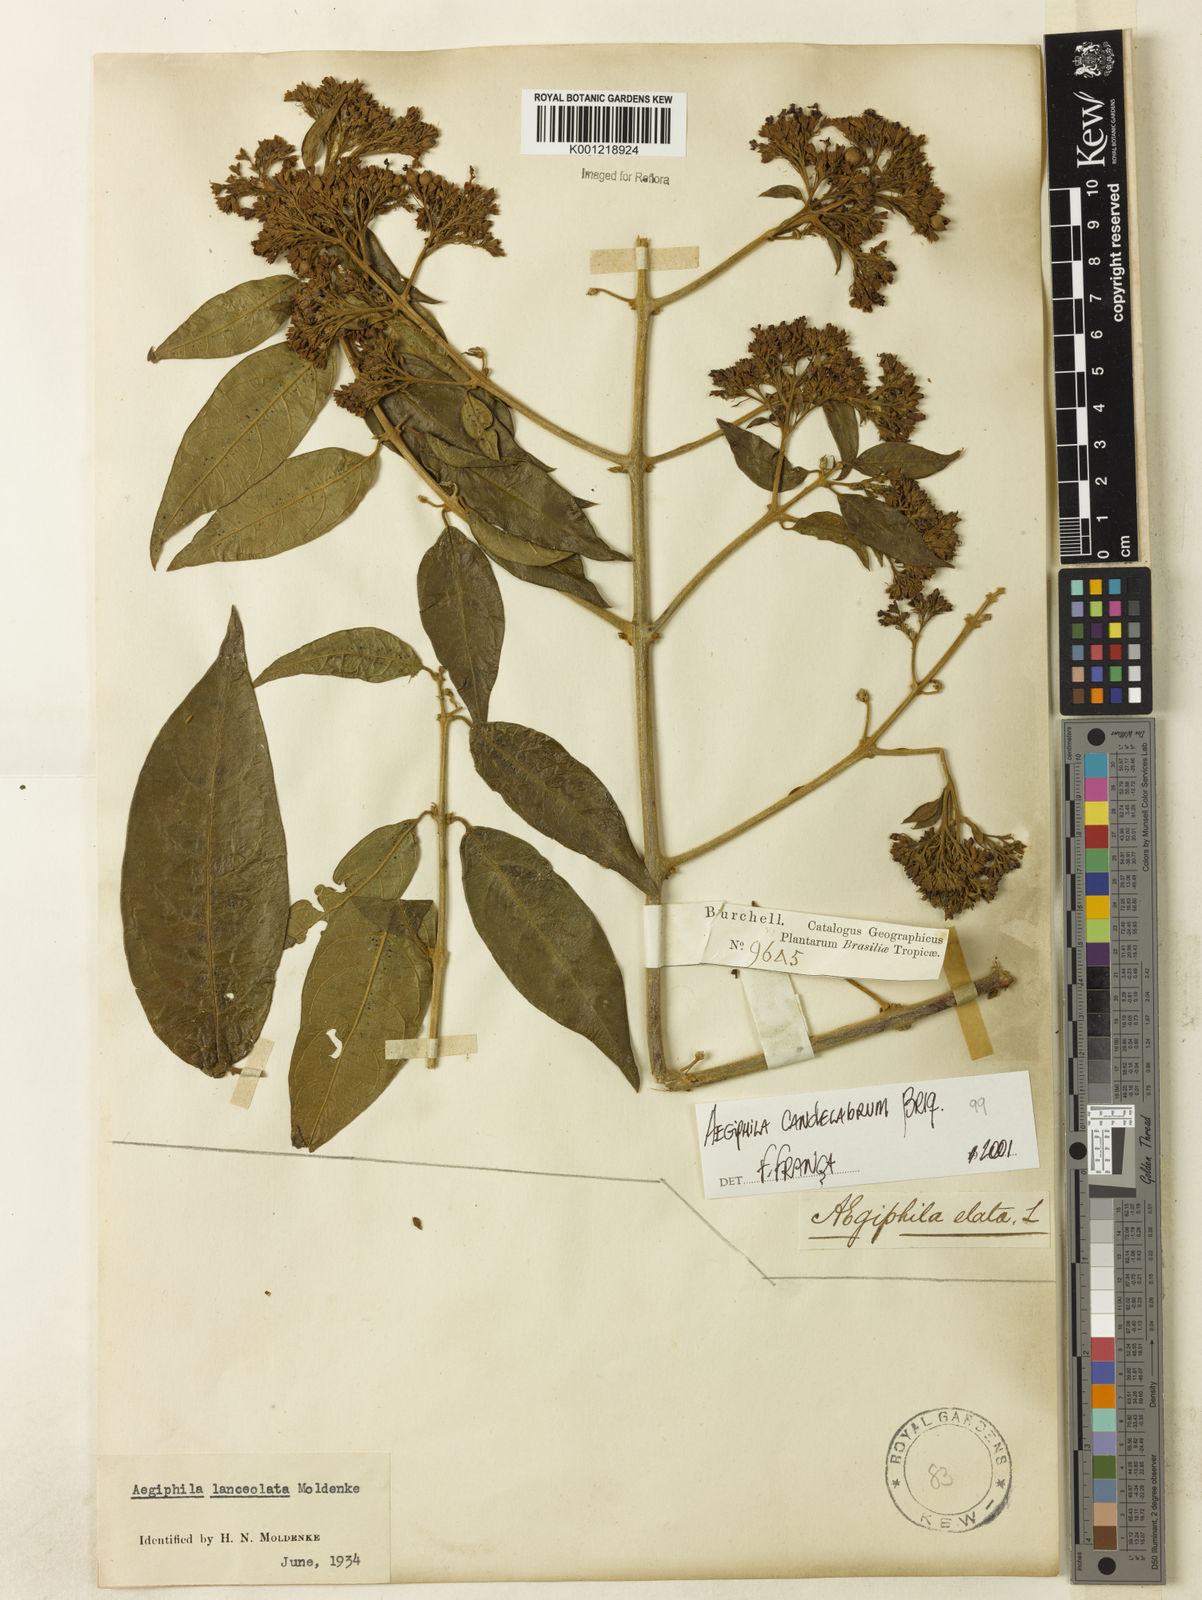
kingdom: Plantae
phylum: Tracheophyta
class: Magnoliopsida
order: Lamiales
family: Lamiaceae
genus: Aegiphila
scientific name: Aegiphila vitelliniflora
